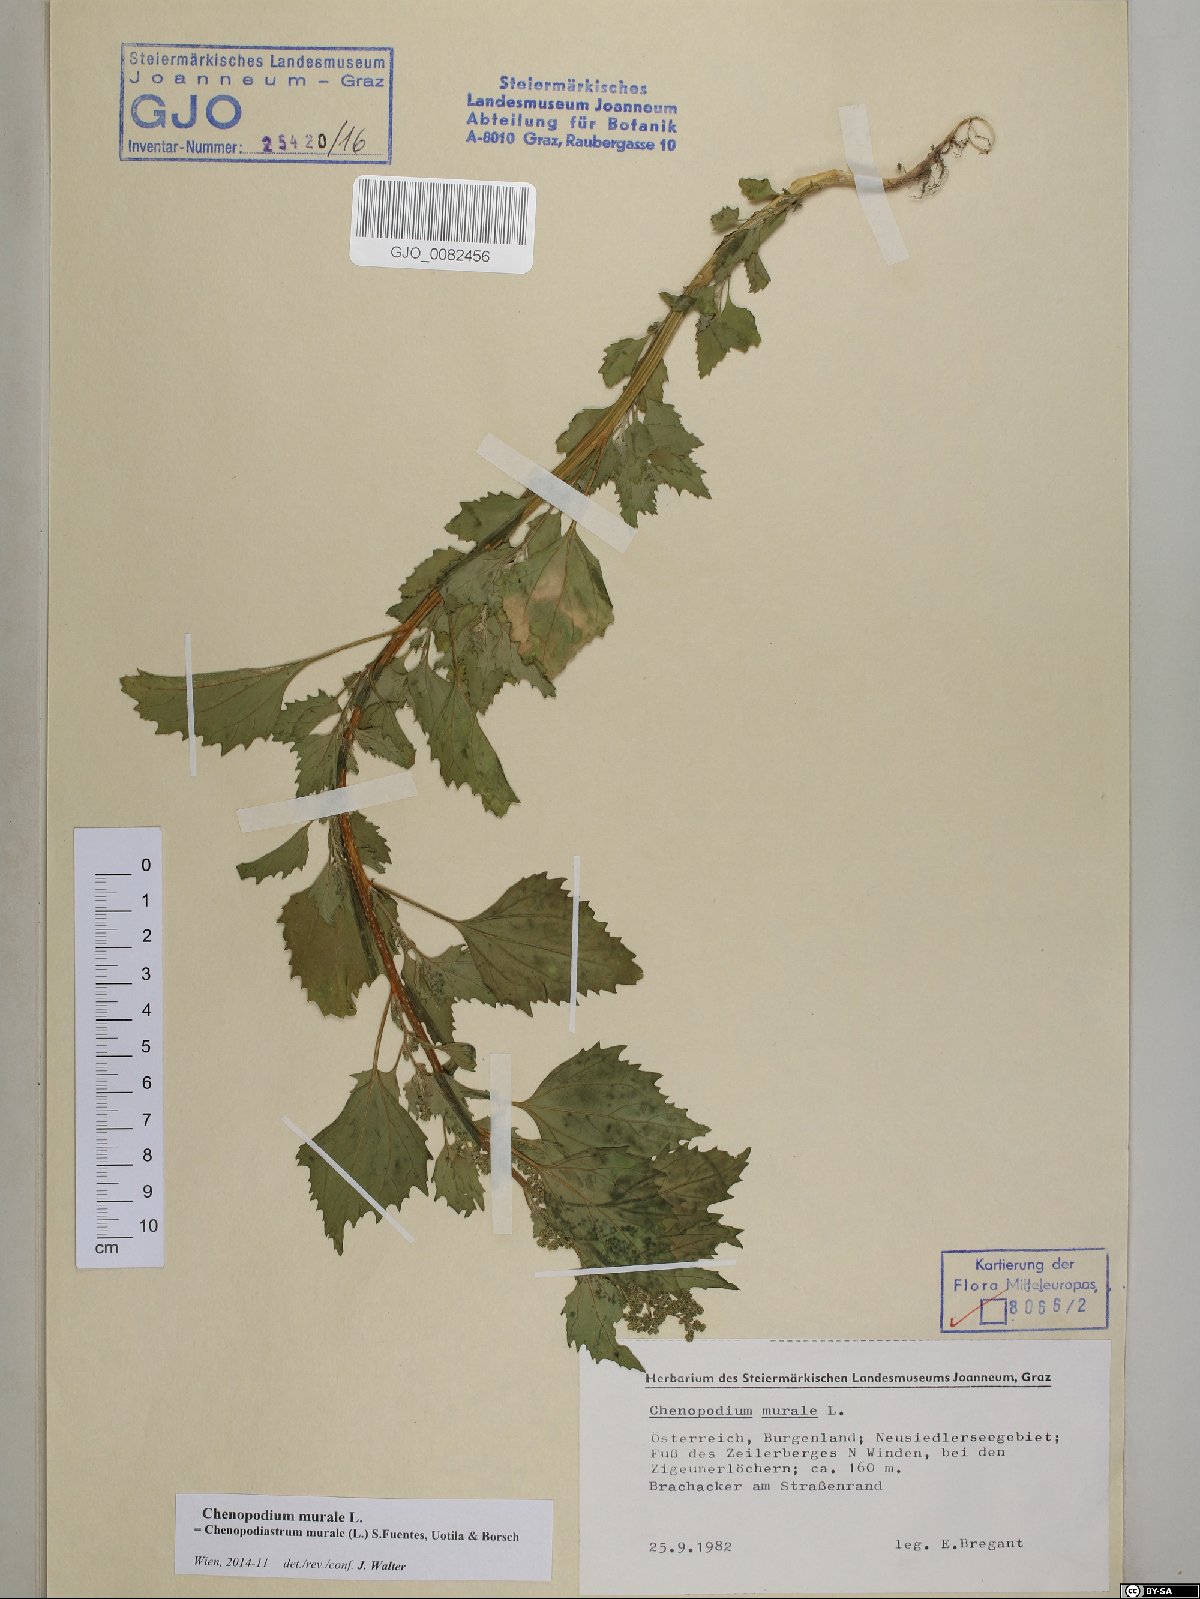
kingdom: Plantae
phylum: Tracheophyta
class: Magnoliopsida
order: Caryophyllales
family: Amaranthaceae
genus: Chenopodiastrum
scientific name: Chenopodiastrum murale
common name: Sowbane
